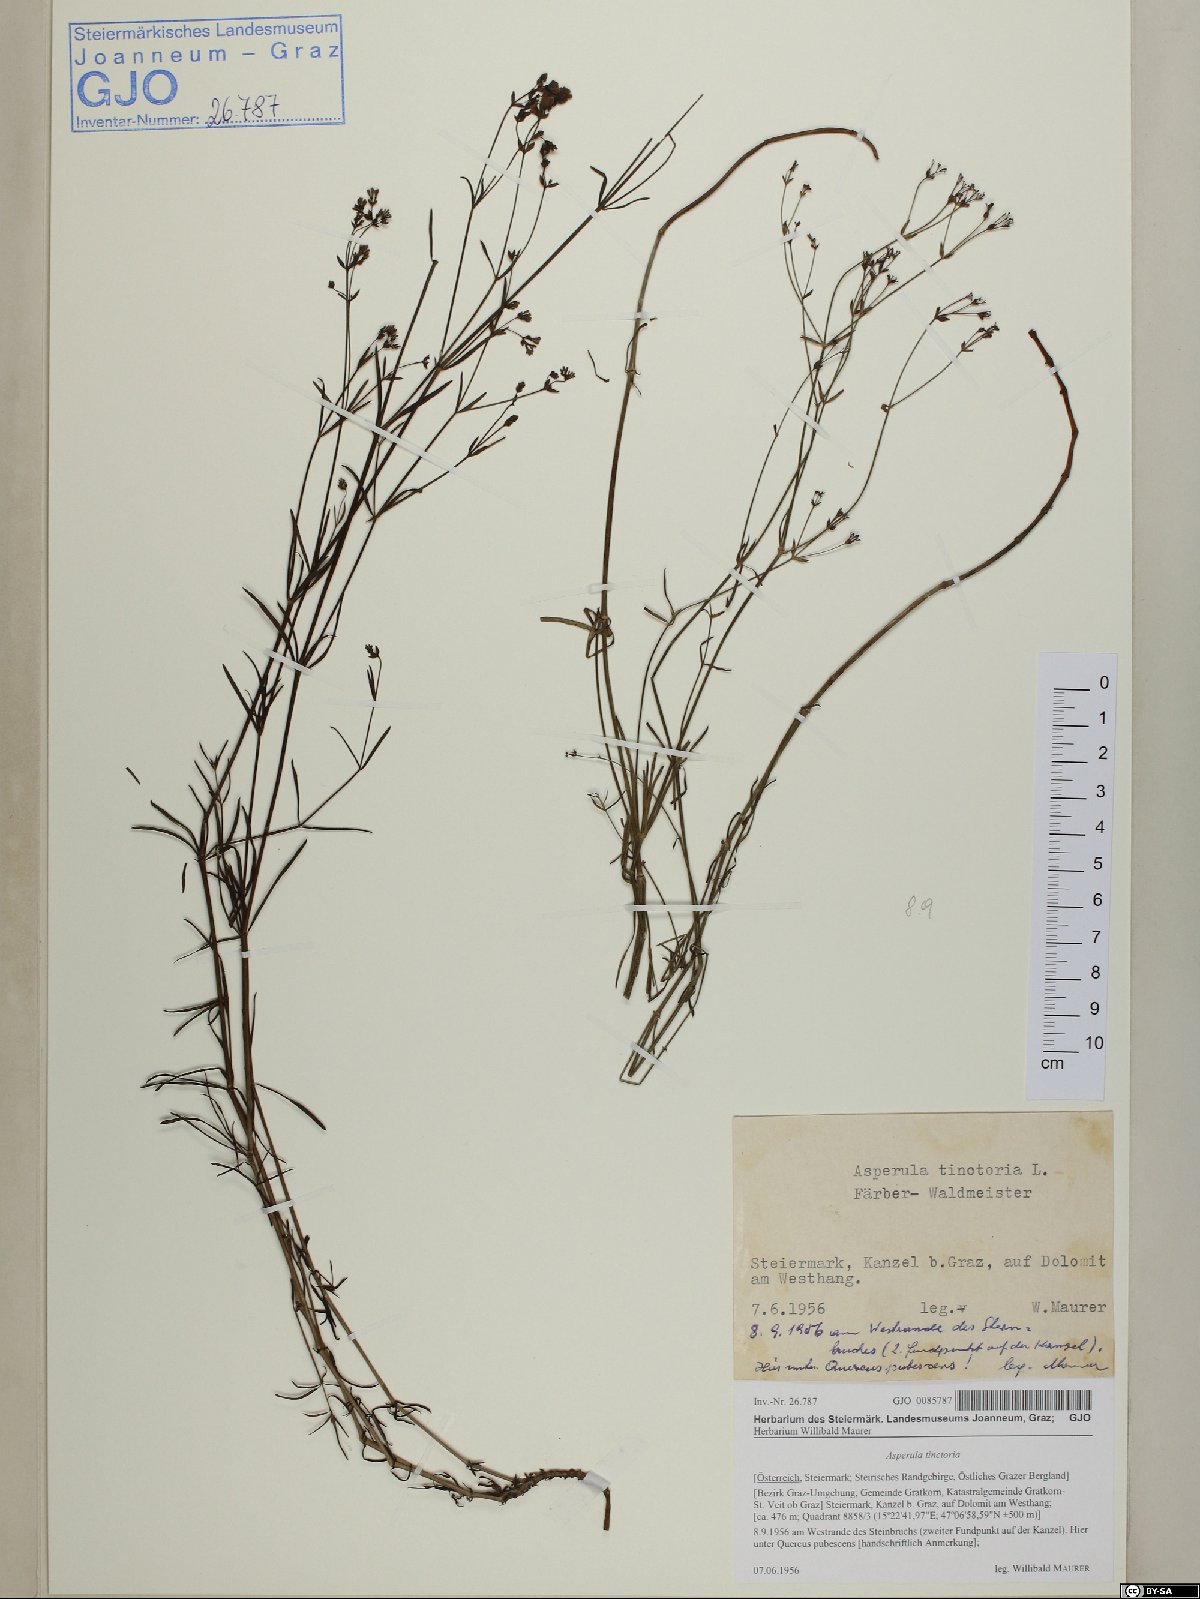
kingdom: Plantae
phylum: Tracheophyta
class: Magnoliopsida
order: Gentianales
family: Rubiaceae
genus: Asperula
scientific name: Asperula tinctoria
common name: Dyer's woodruff
